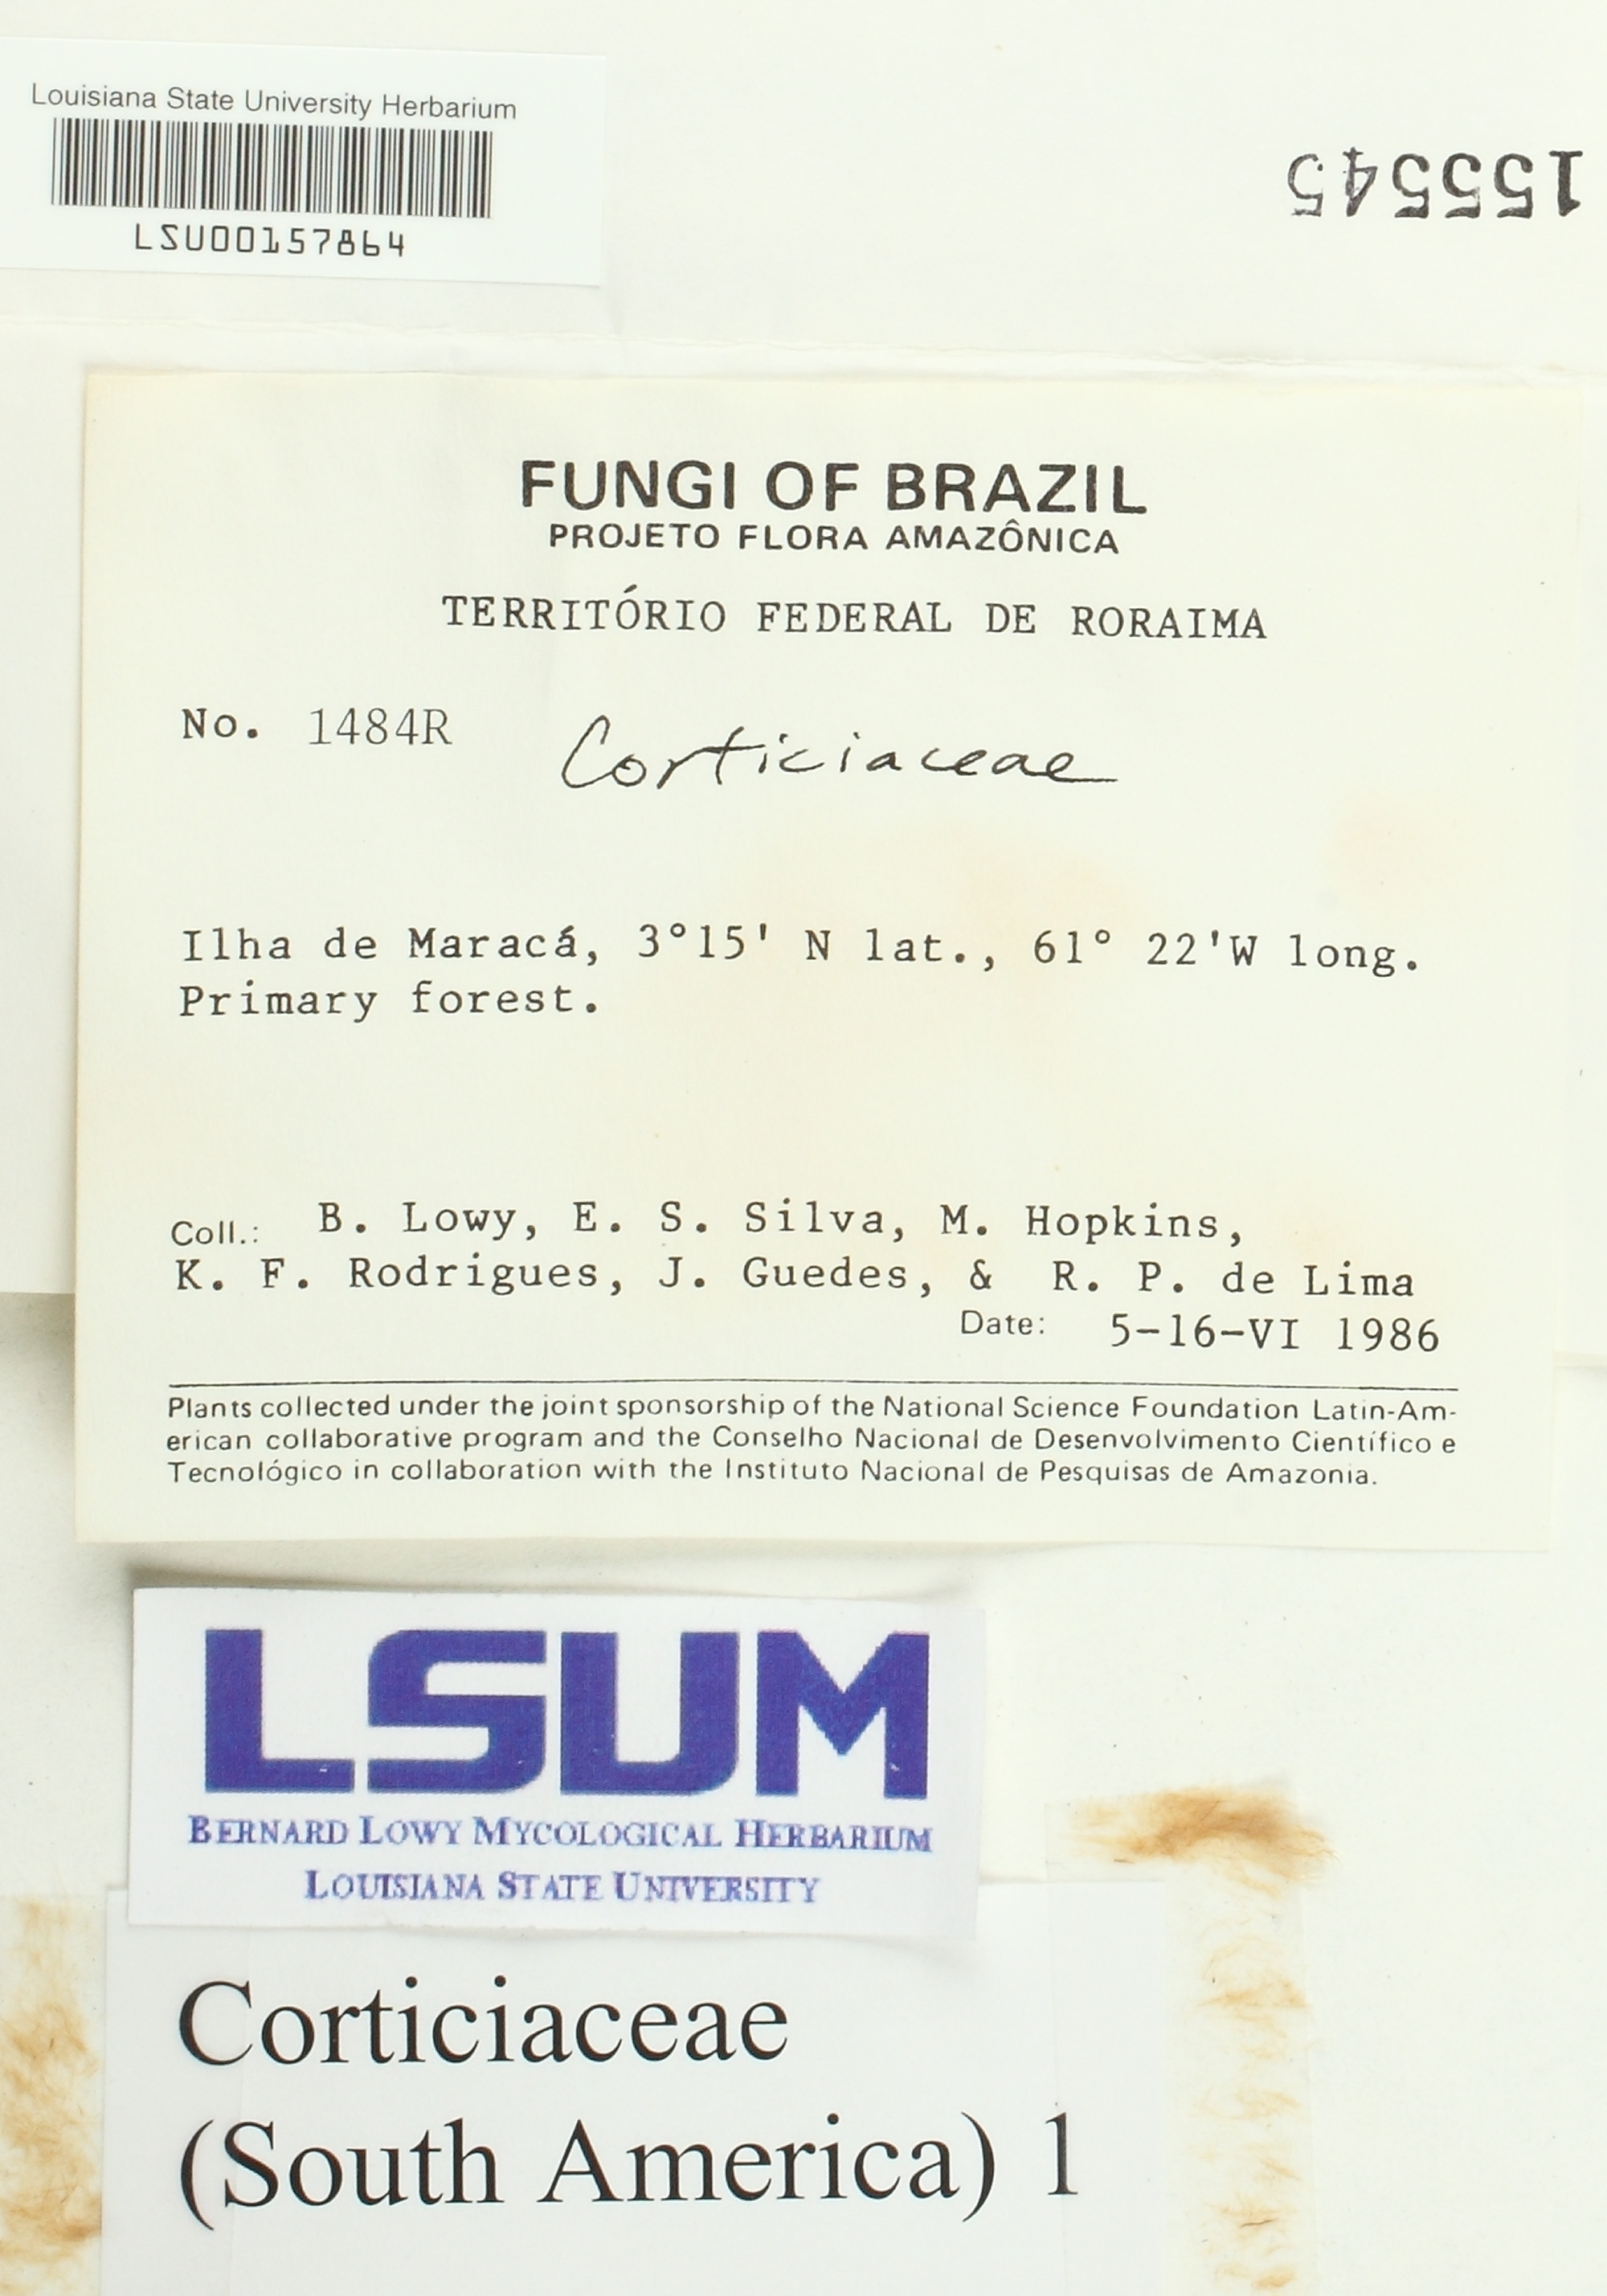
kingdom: Fungi
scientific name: Fungi
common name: Fungi
